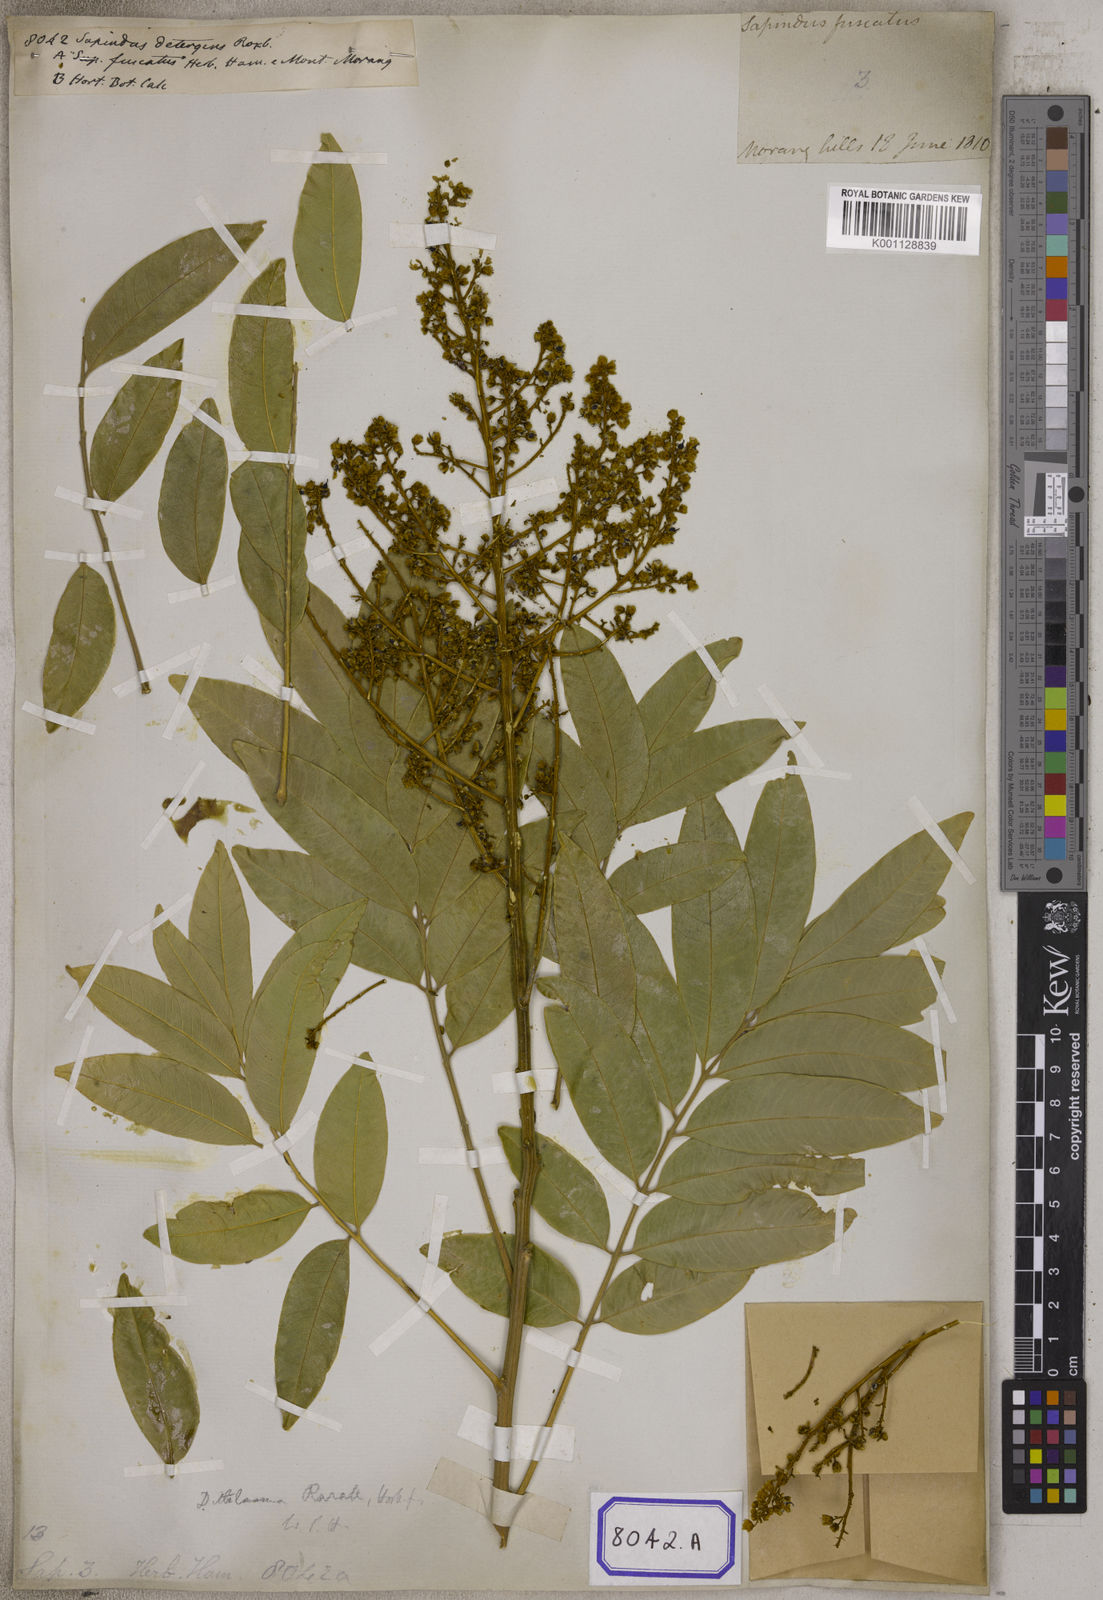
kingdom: Plantae
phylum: Tracheophyta
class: Magnoliopsida
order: Sapindales
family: Sapindaceae
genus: Sapindus
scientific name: Sapindus rarak
